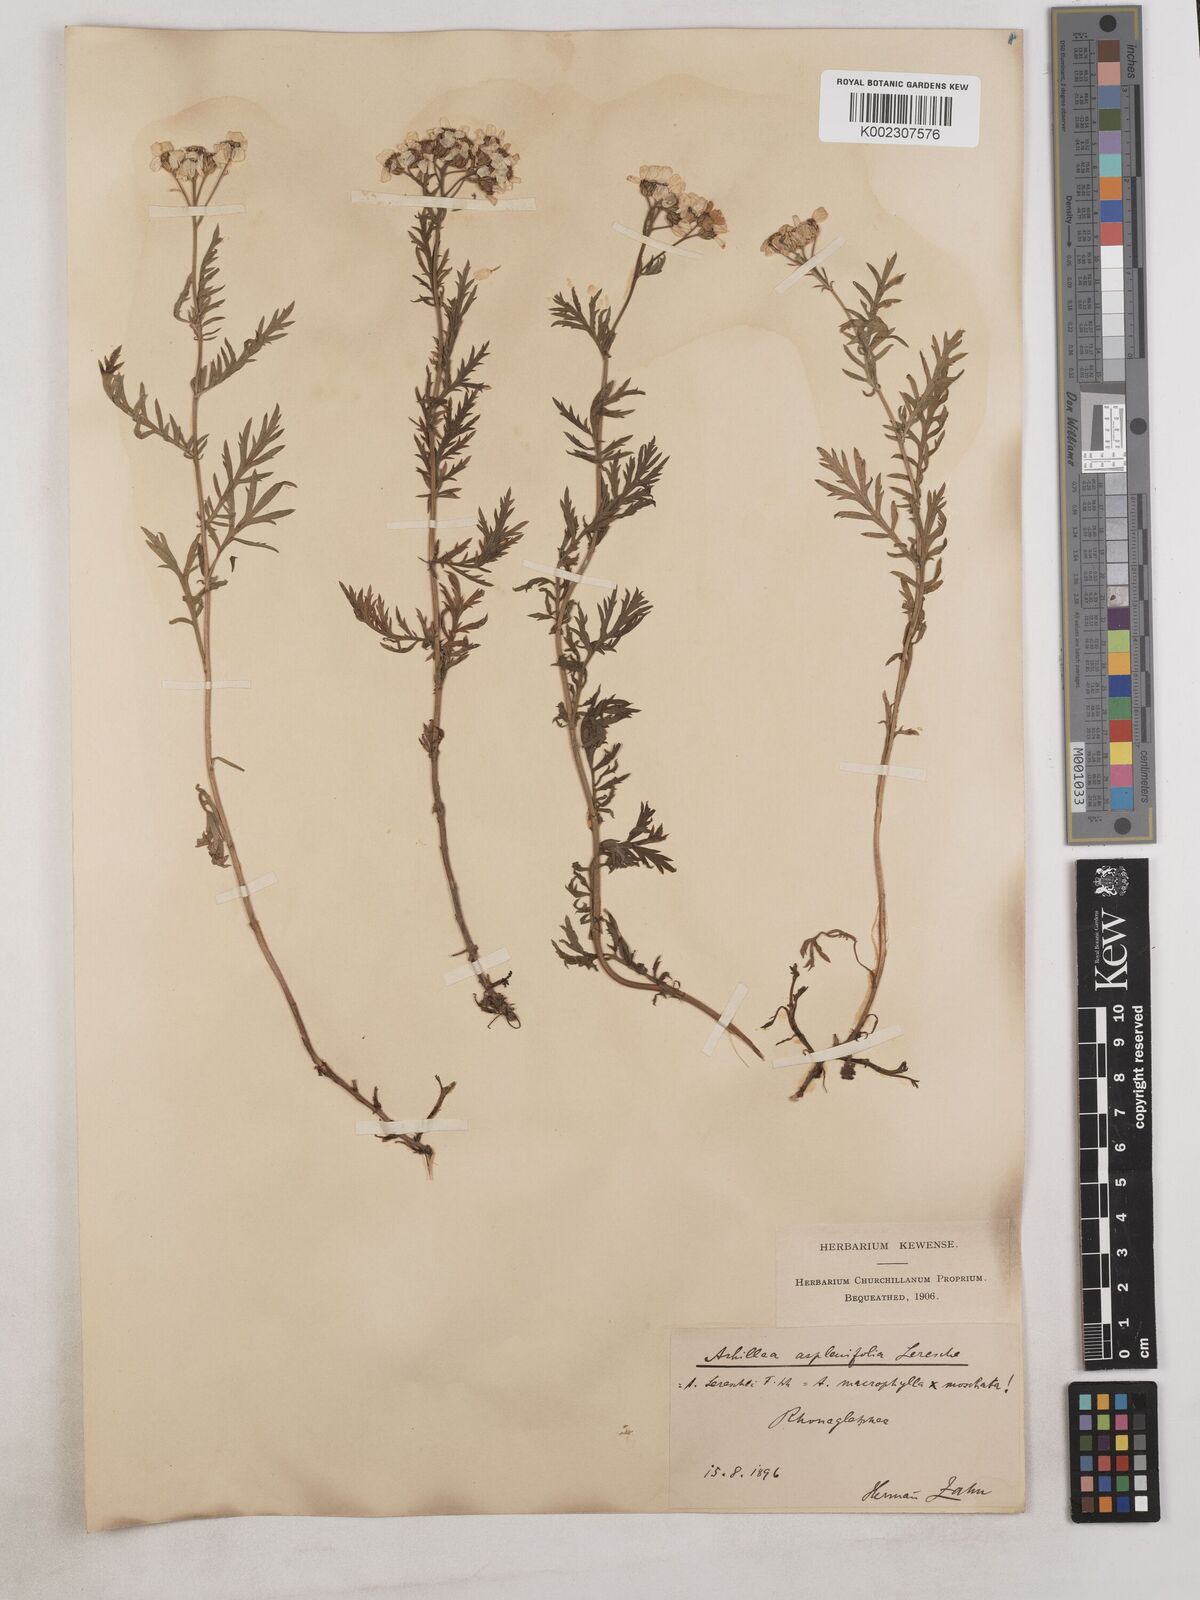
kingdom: Plantae
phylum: Tracheophyta
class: Magnoliopsida
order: Asterales
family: Asteraceae
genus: Achillea
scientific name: Achillea valesiaca
